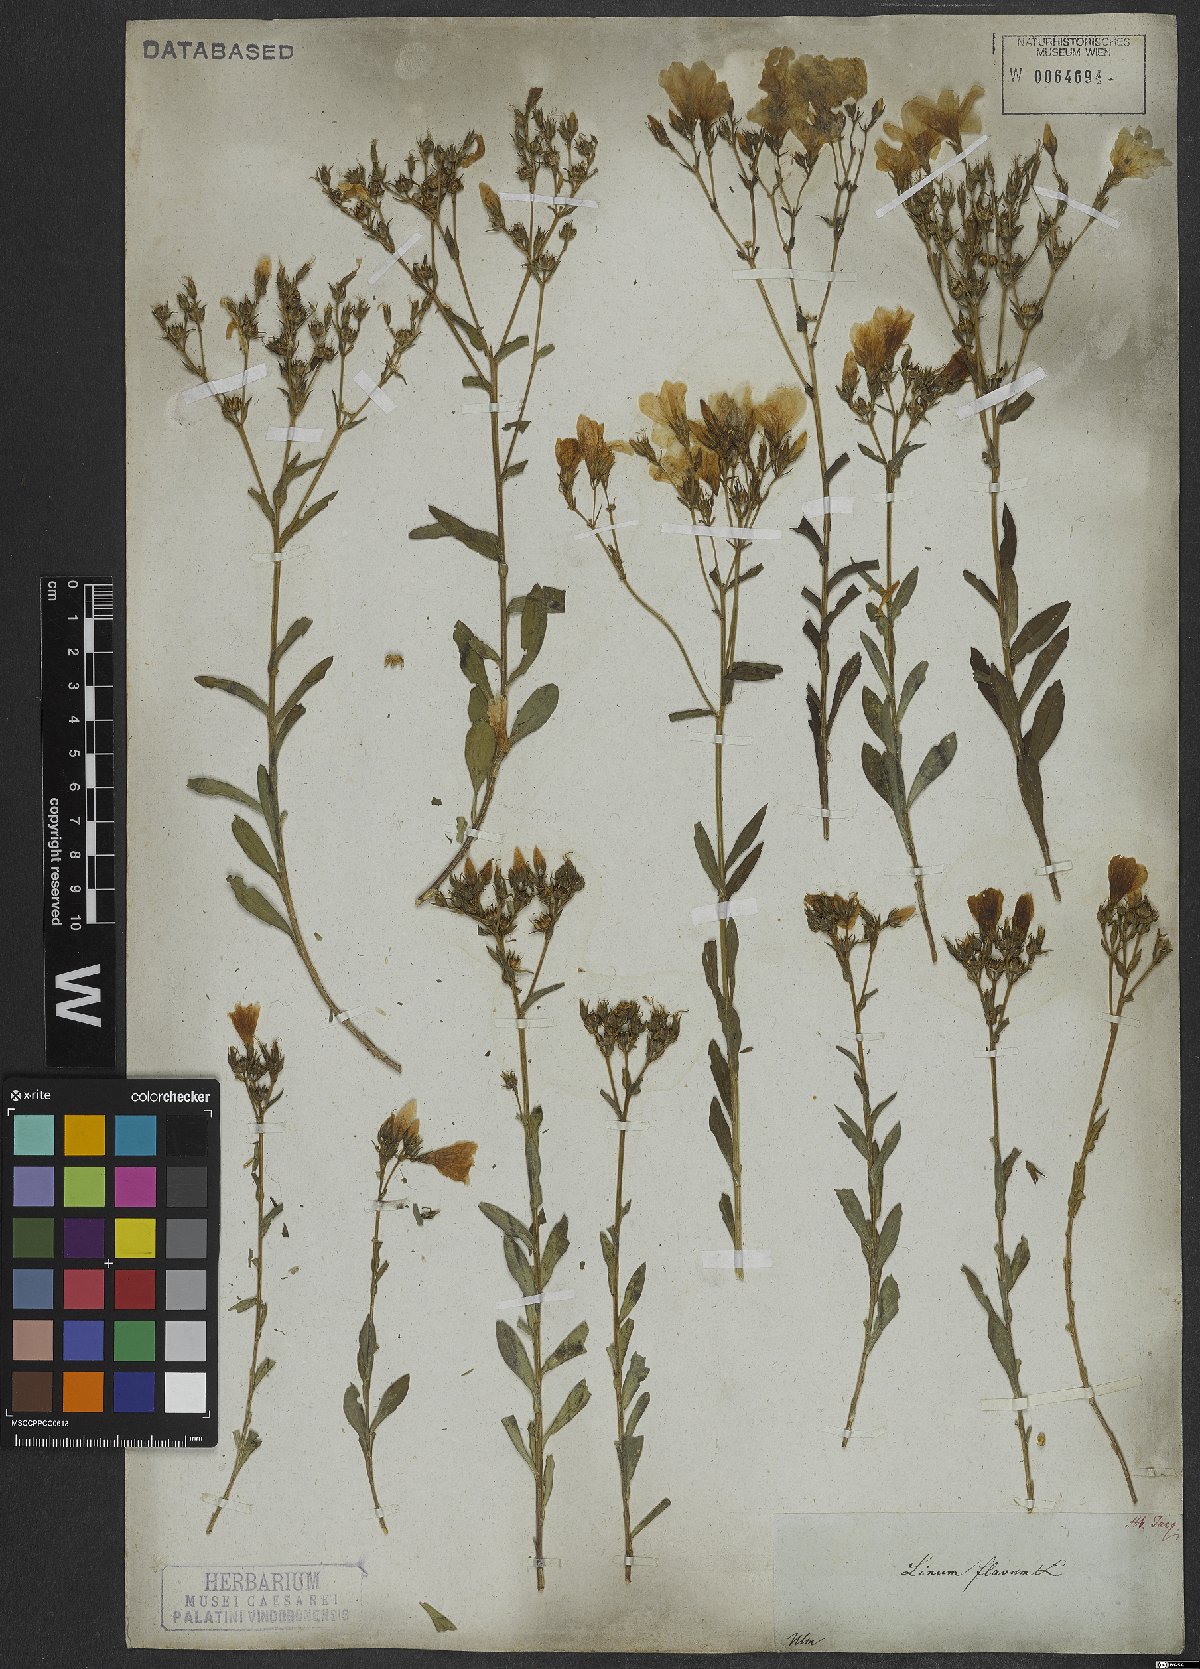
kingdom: Plantae
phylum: Tracheophyta
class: Magnoliopsida
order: Malpighiales
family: Linaceae
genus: Linum
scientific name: Linum flavum
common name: Yellow flax
